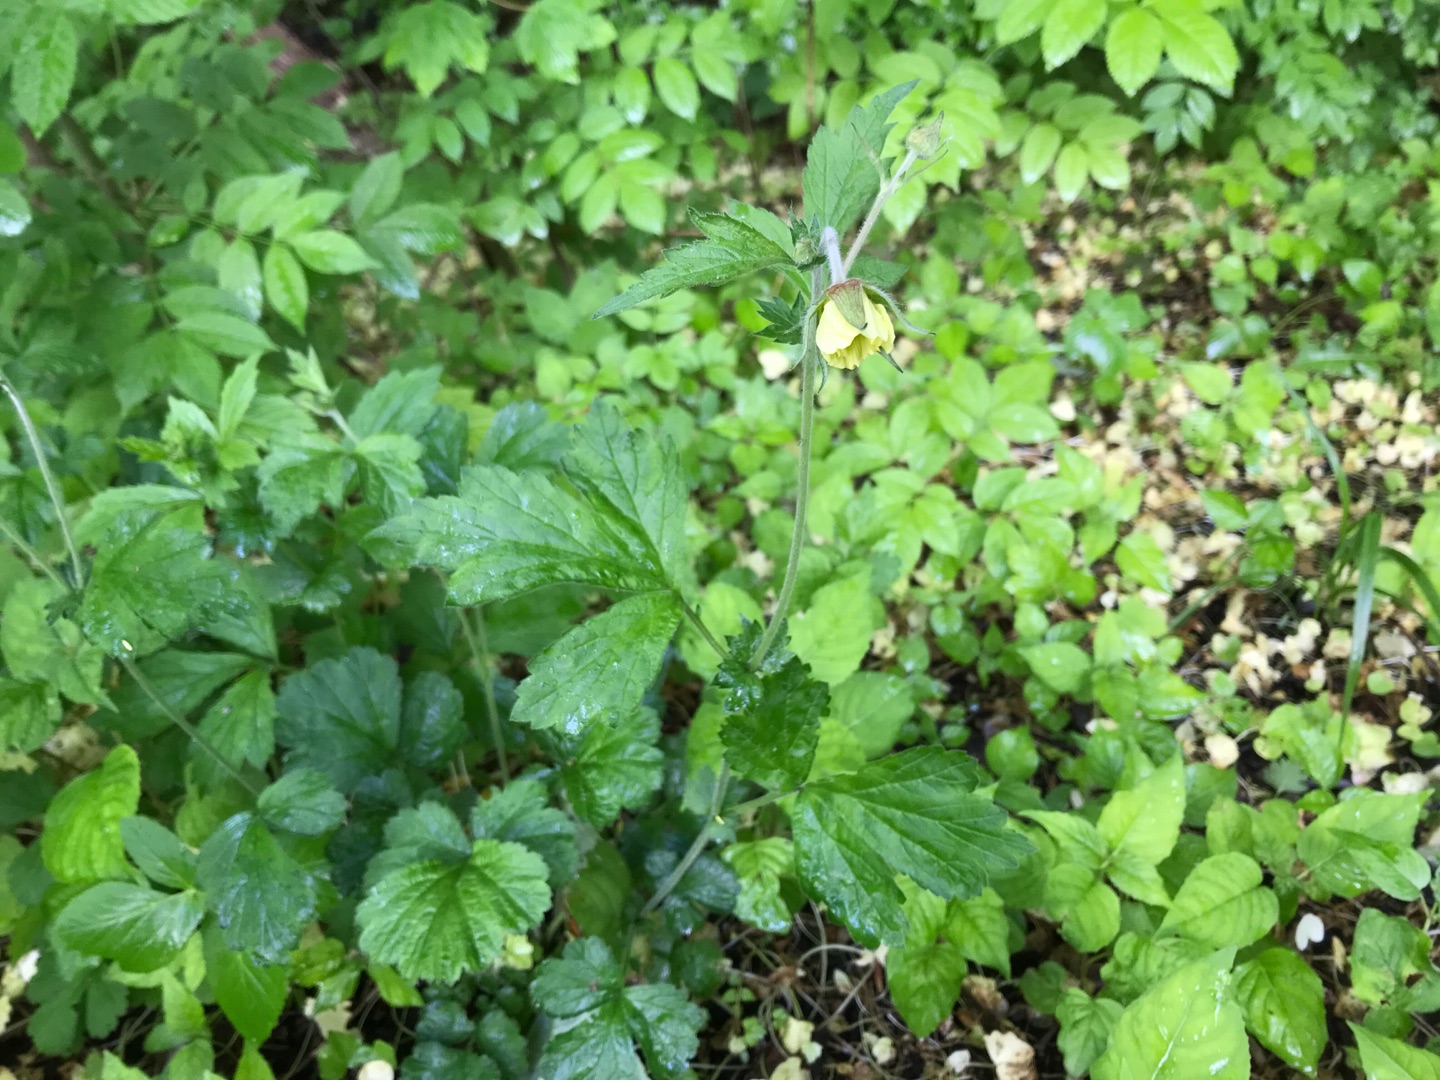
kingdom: Plantae
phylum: Tracheophyta
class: Magnoliopsida
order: Rosales
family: Rosaceae
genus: Geum
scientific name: Geum
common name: Høj nellikerod
